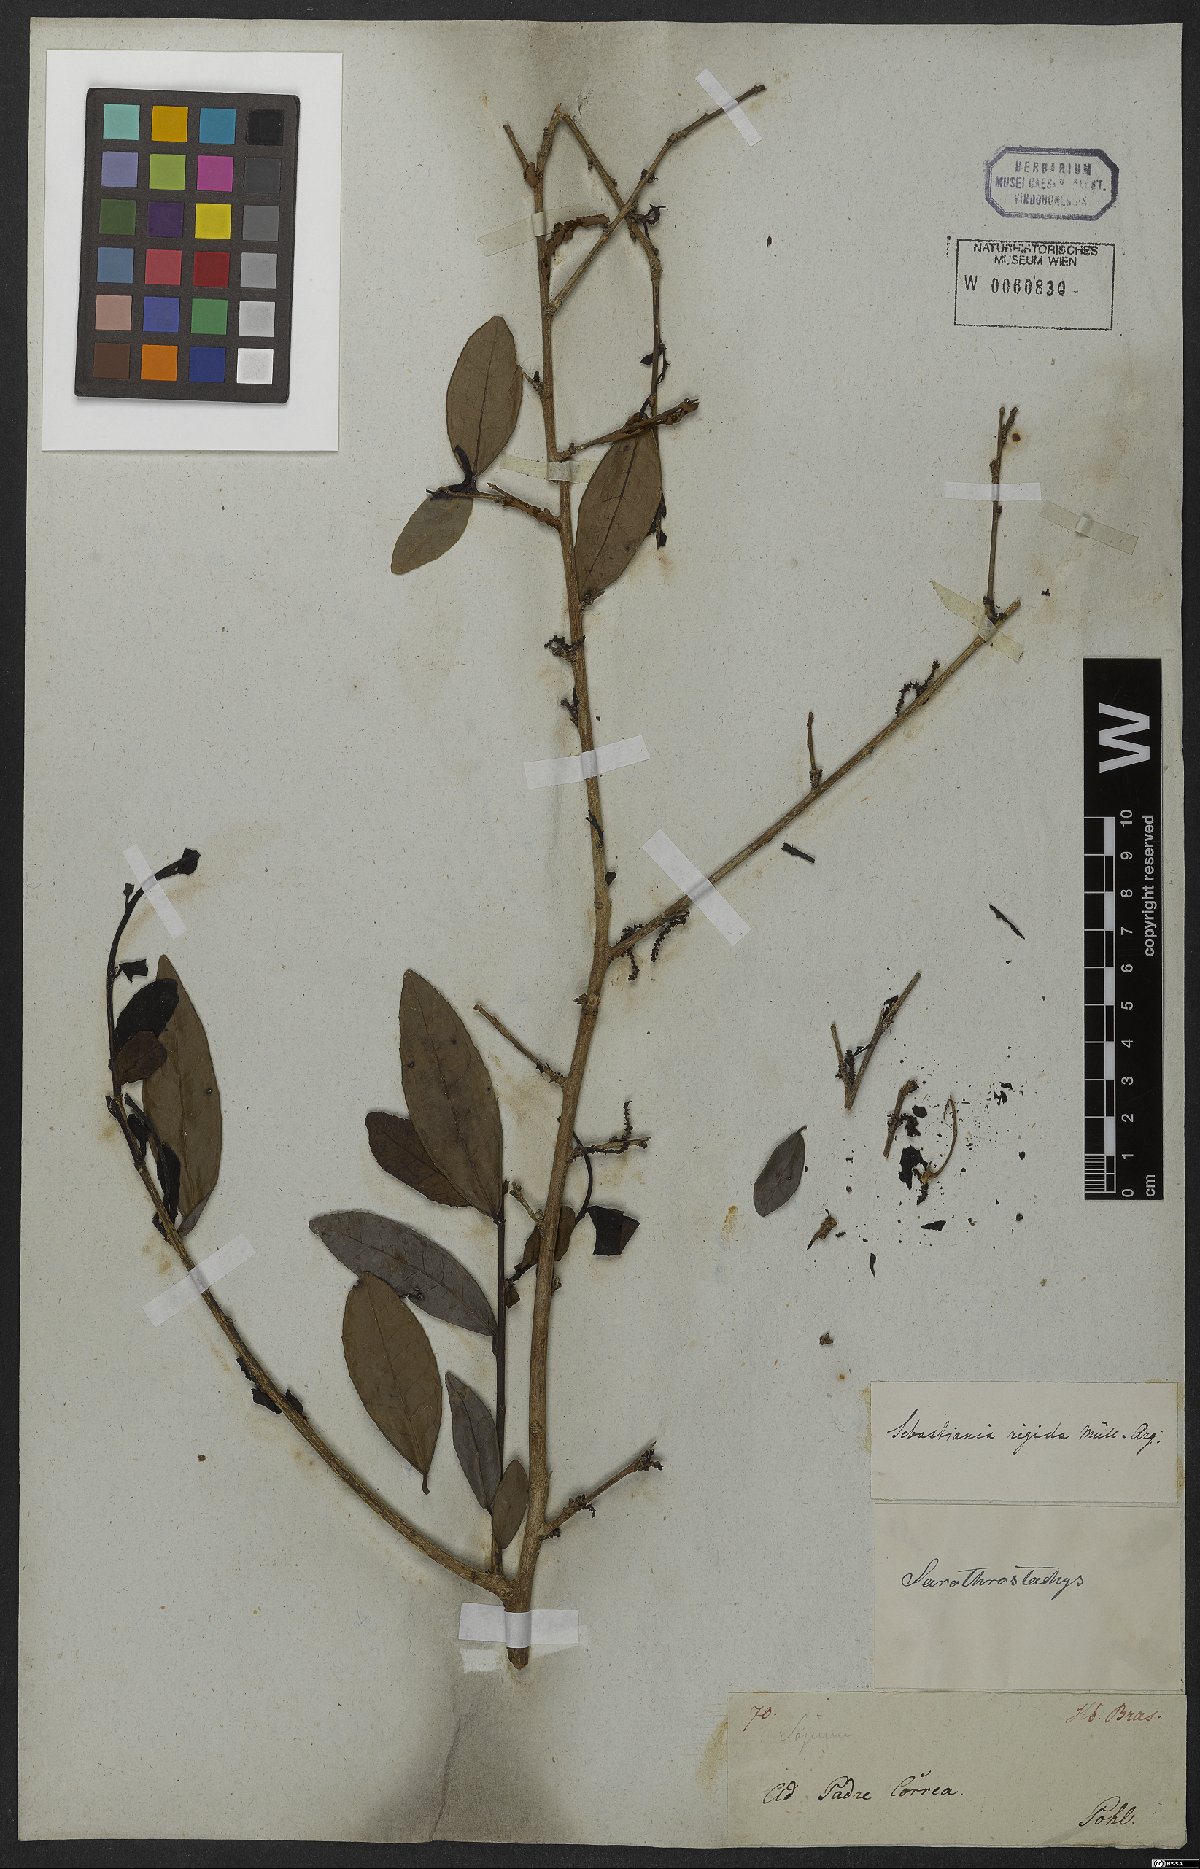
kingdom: Plantae
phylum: Tracheophyta
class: Magnoliopsida
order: Malpighiales
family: Euphorbiaceae
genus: Sebastiania
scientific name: Sebastiania rigida
